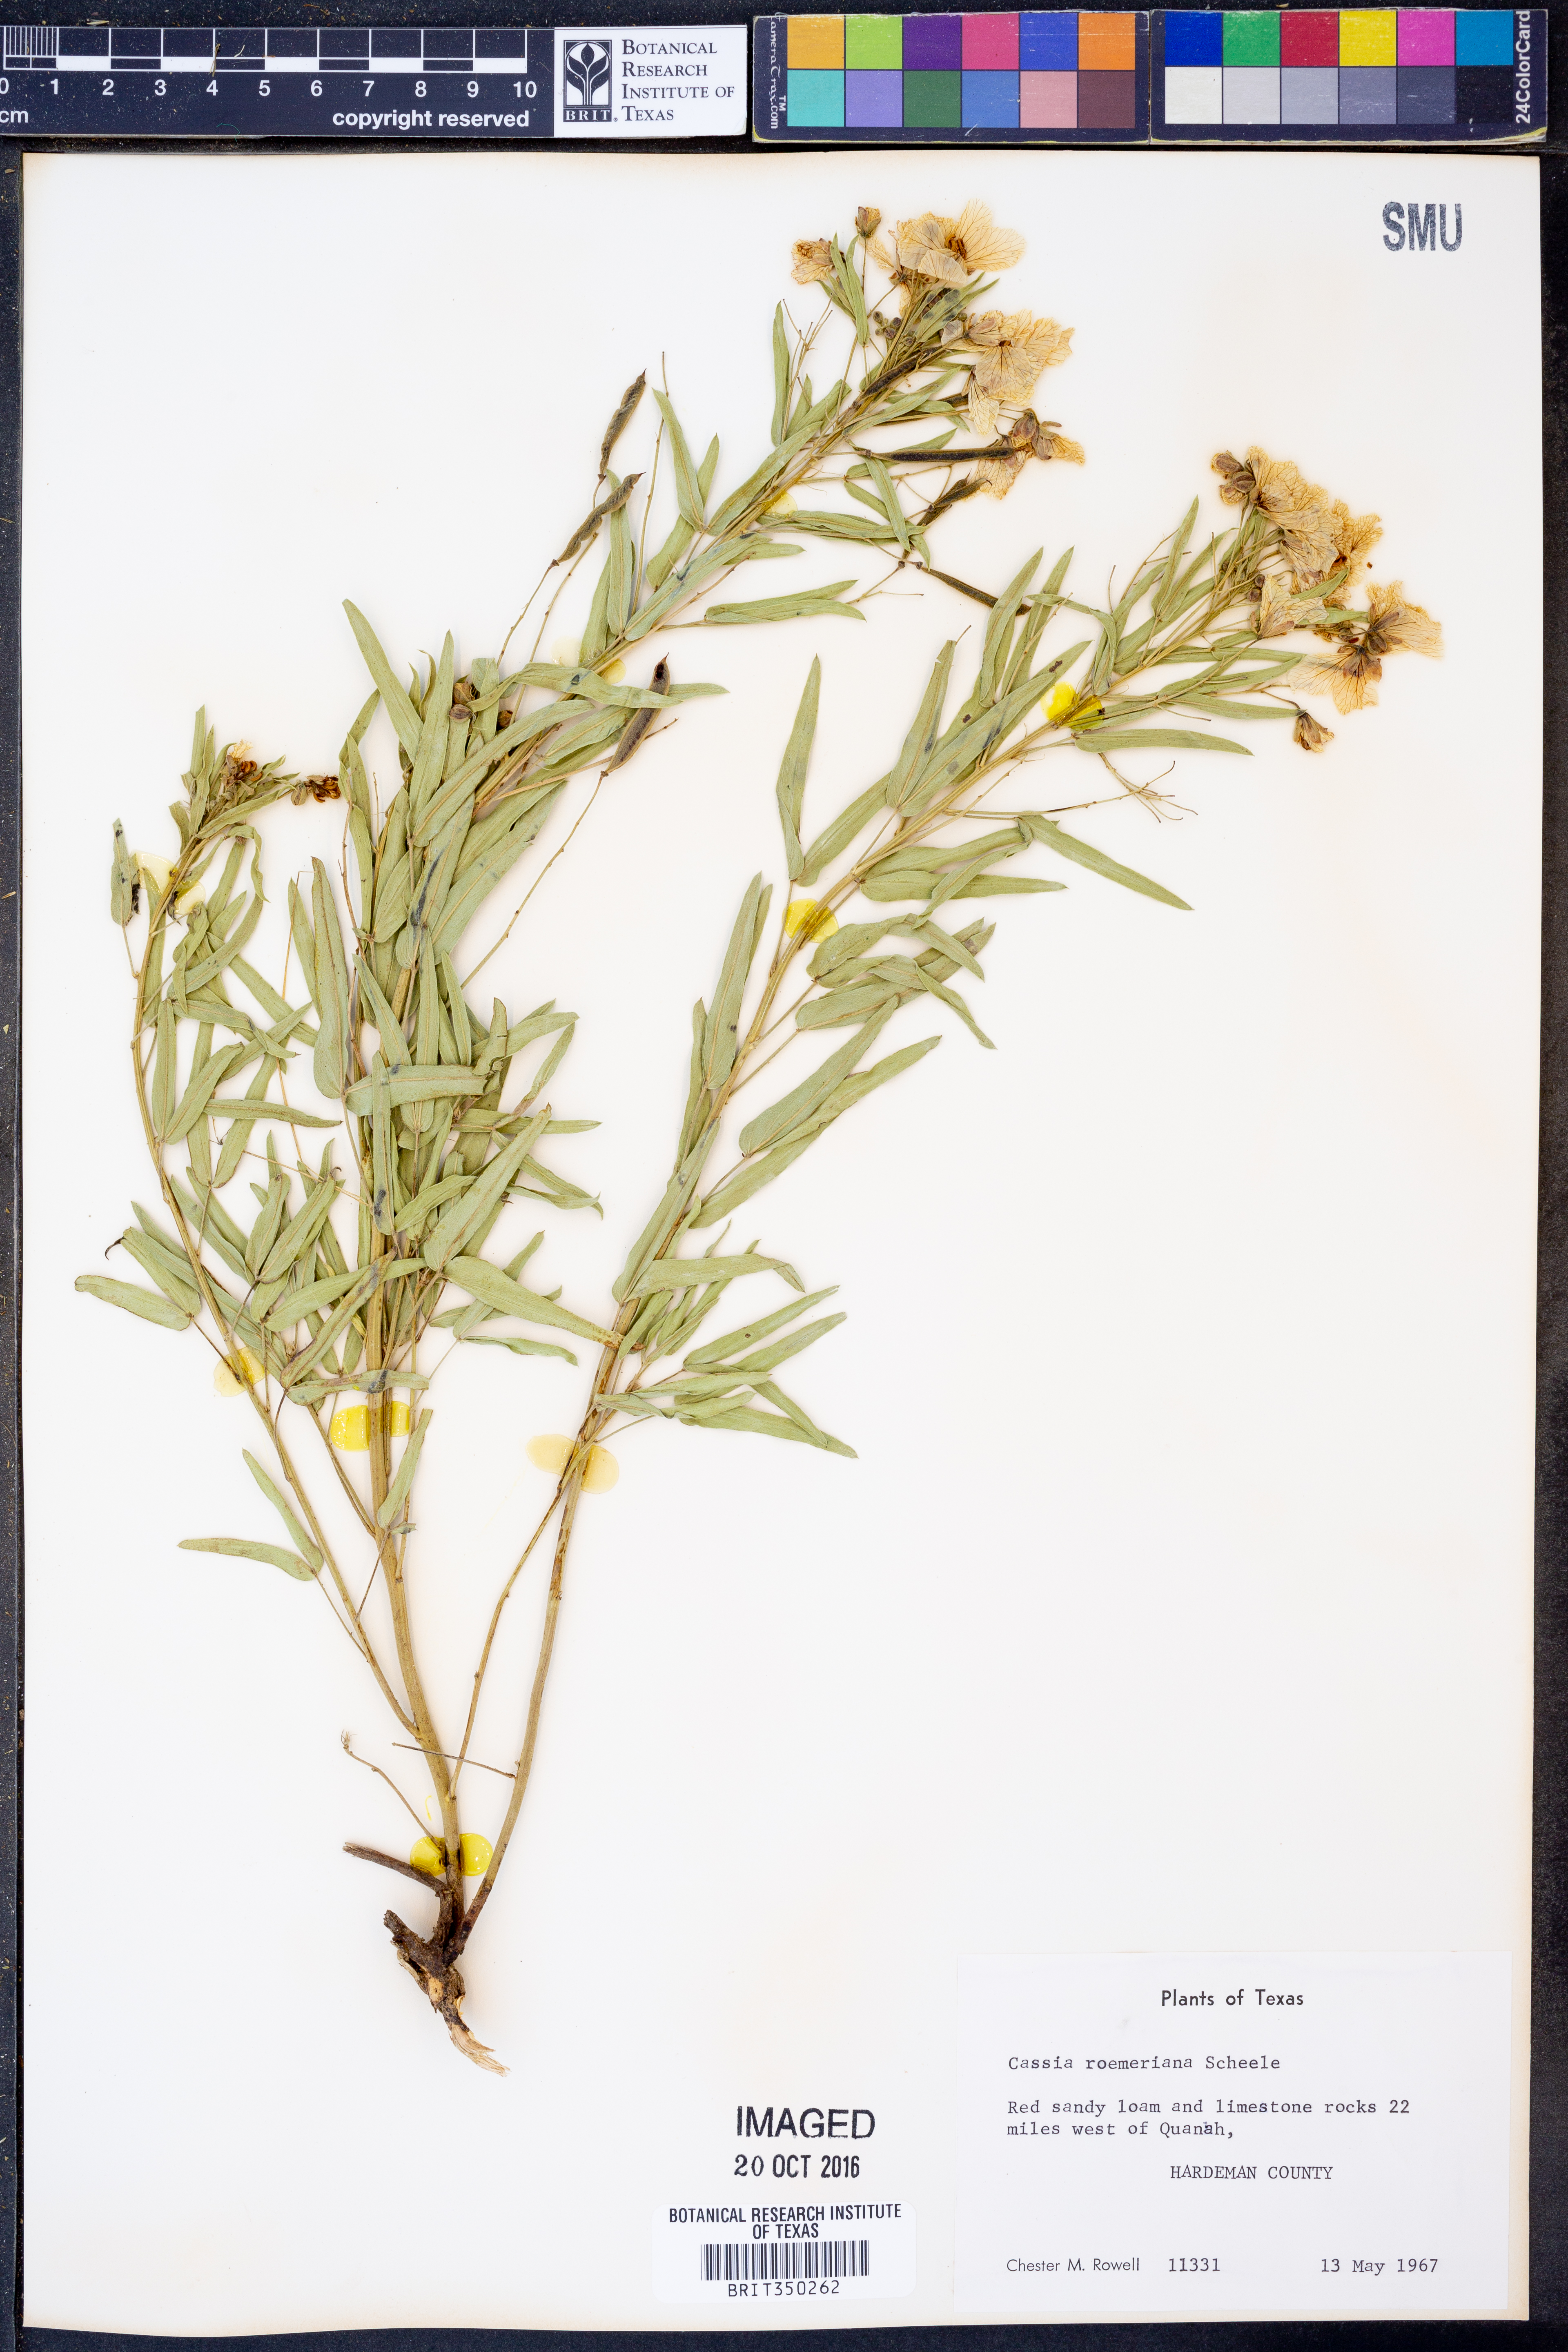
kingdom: Plantae
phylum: Tracheophyta
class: Magnoliopsida
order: Fabales
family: Fabaceae
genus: Senna
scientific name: Senna roemeriana
